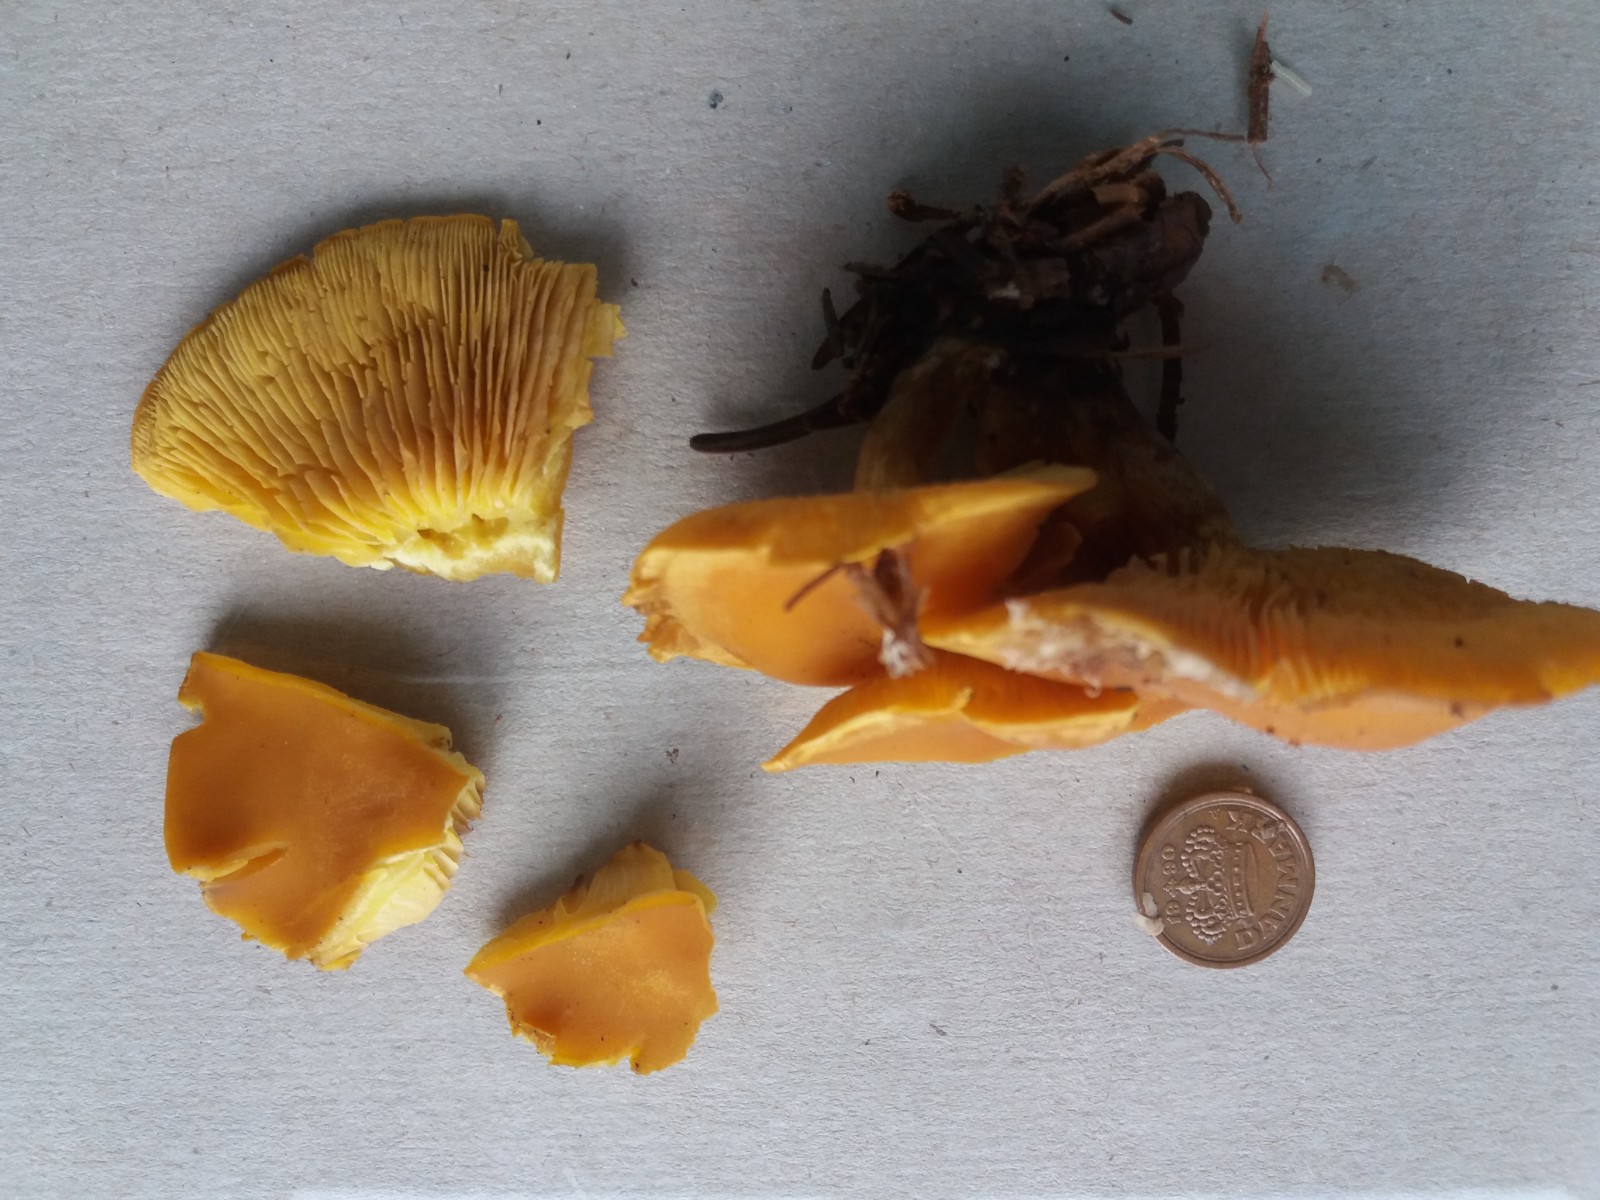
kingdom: Fungi
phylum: Basidiomycota
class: Agaricomycetes
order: Agaricales
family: Lyophyllaceae
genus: Calocybe
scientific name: Calocybe chrysenteron
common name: brandgul fagerhat
